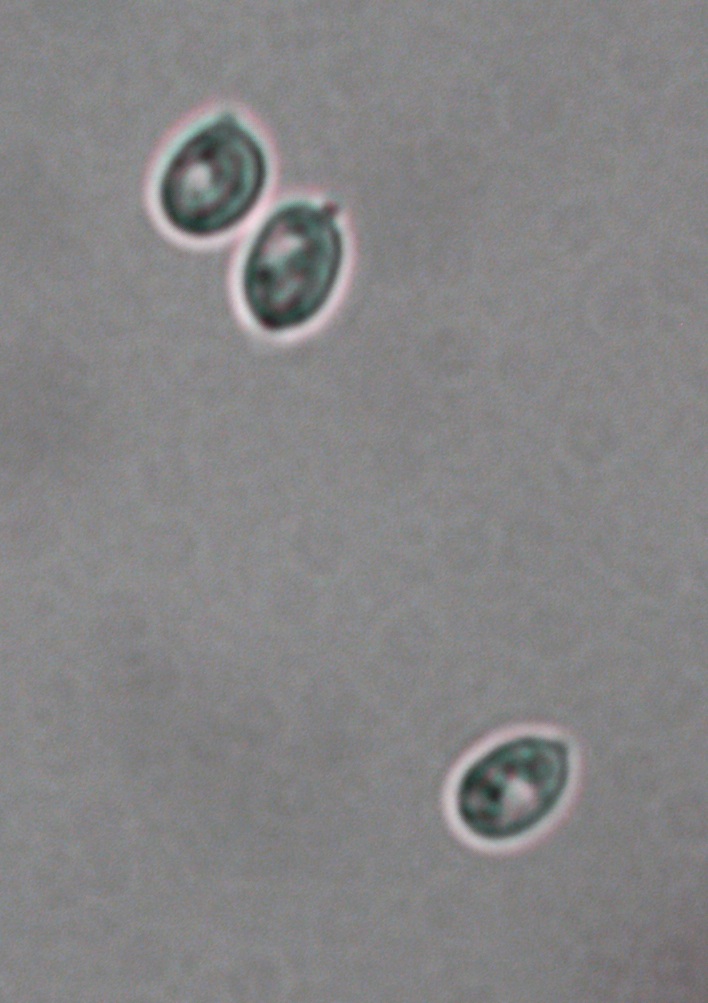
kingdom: Fungi
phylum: Basidiomycota
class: Agaricomycetes
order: Polyporales
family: Meruliaceae
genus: Pappia
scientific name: Pappia fissilis
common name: sej fedtporesvamp
